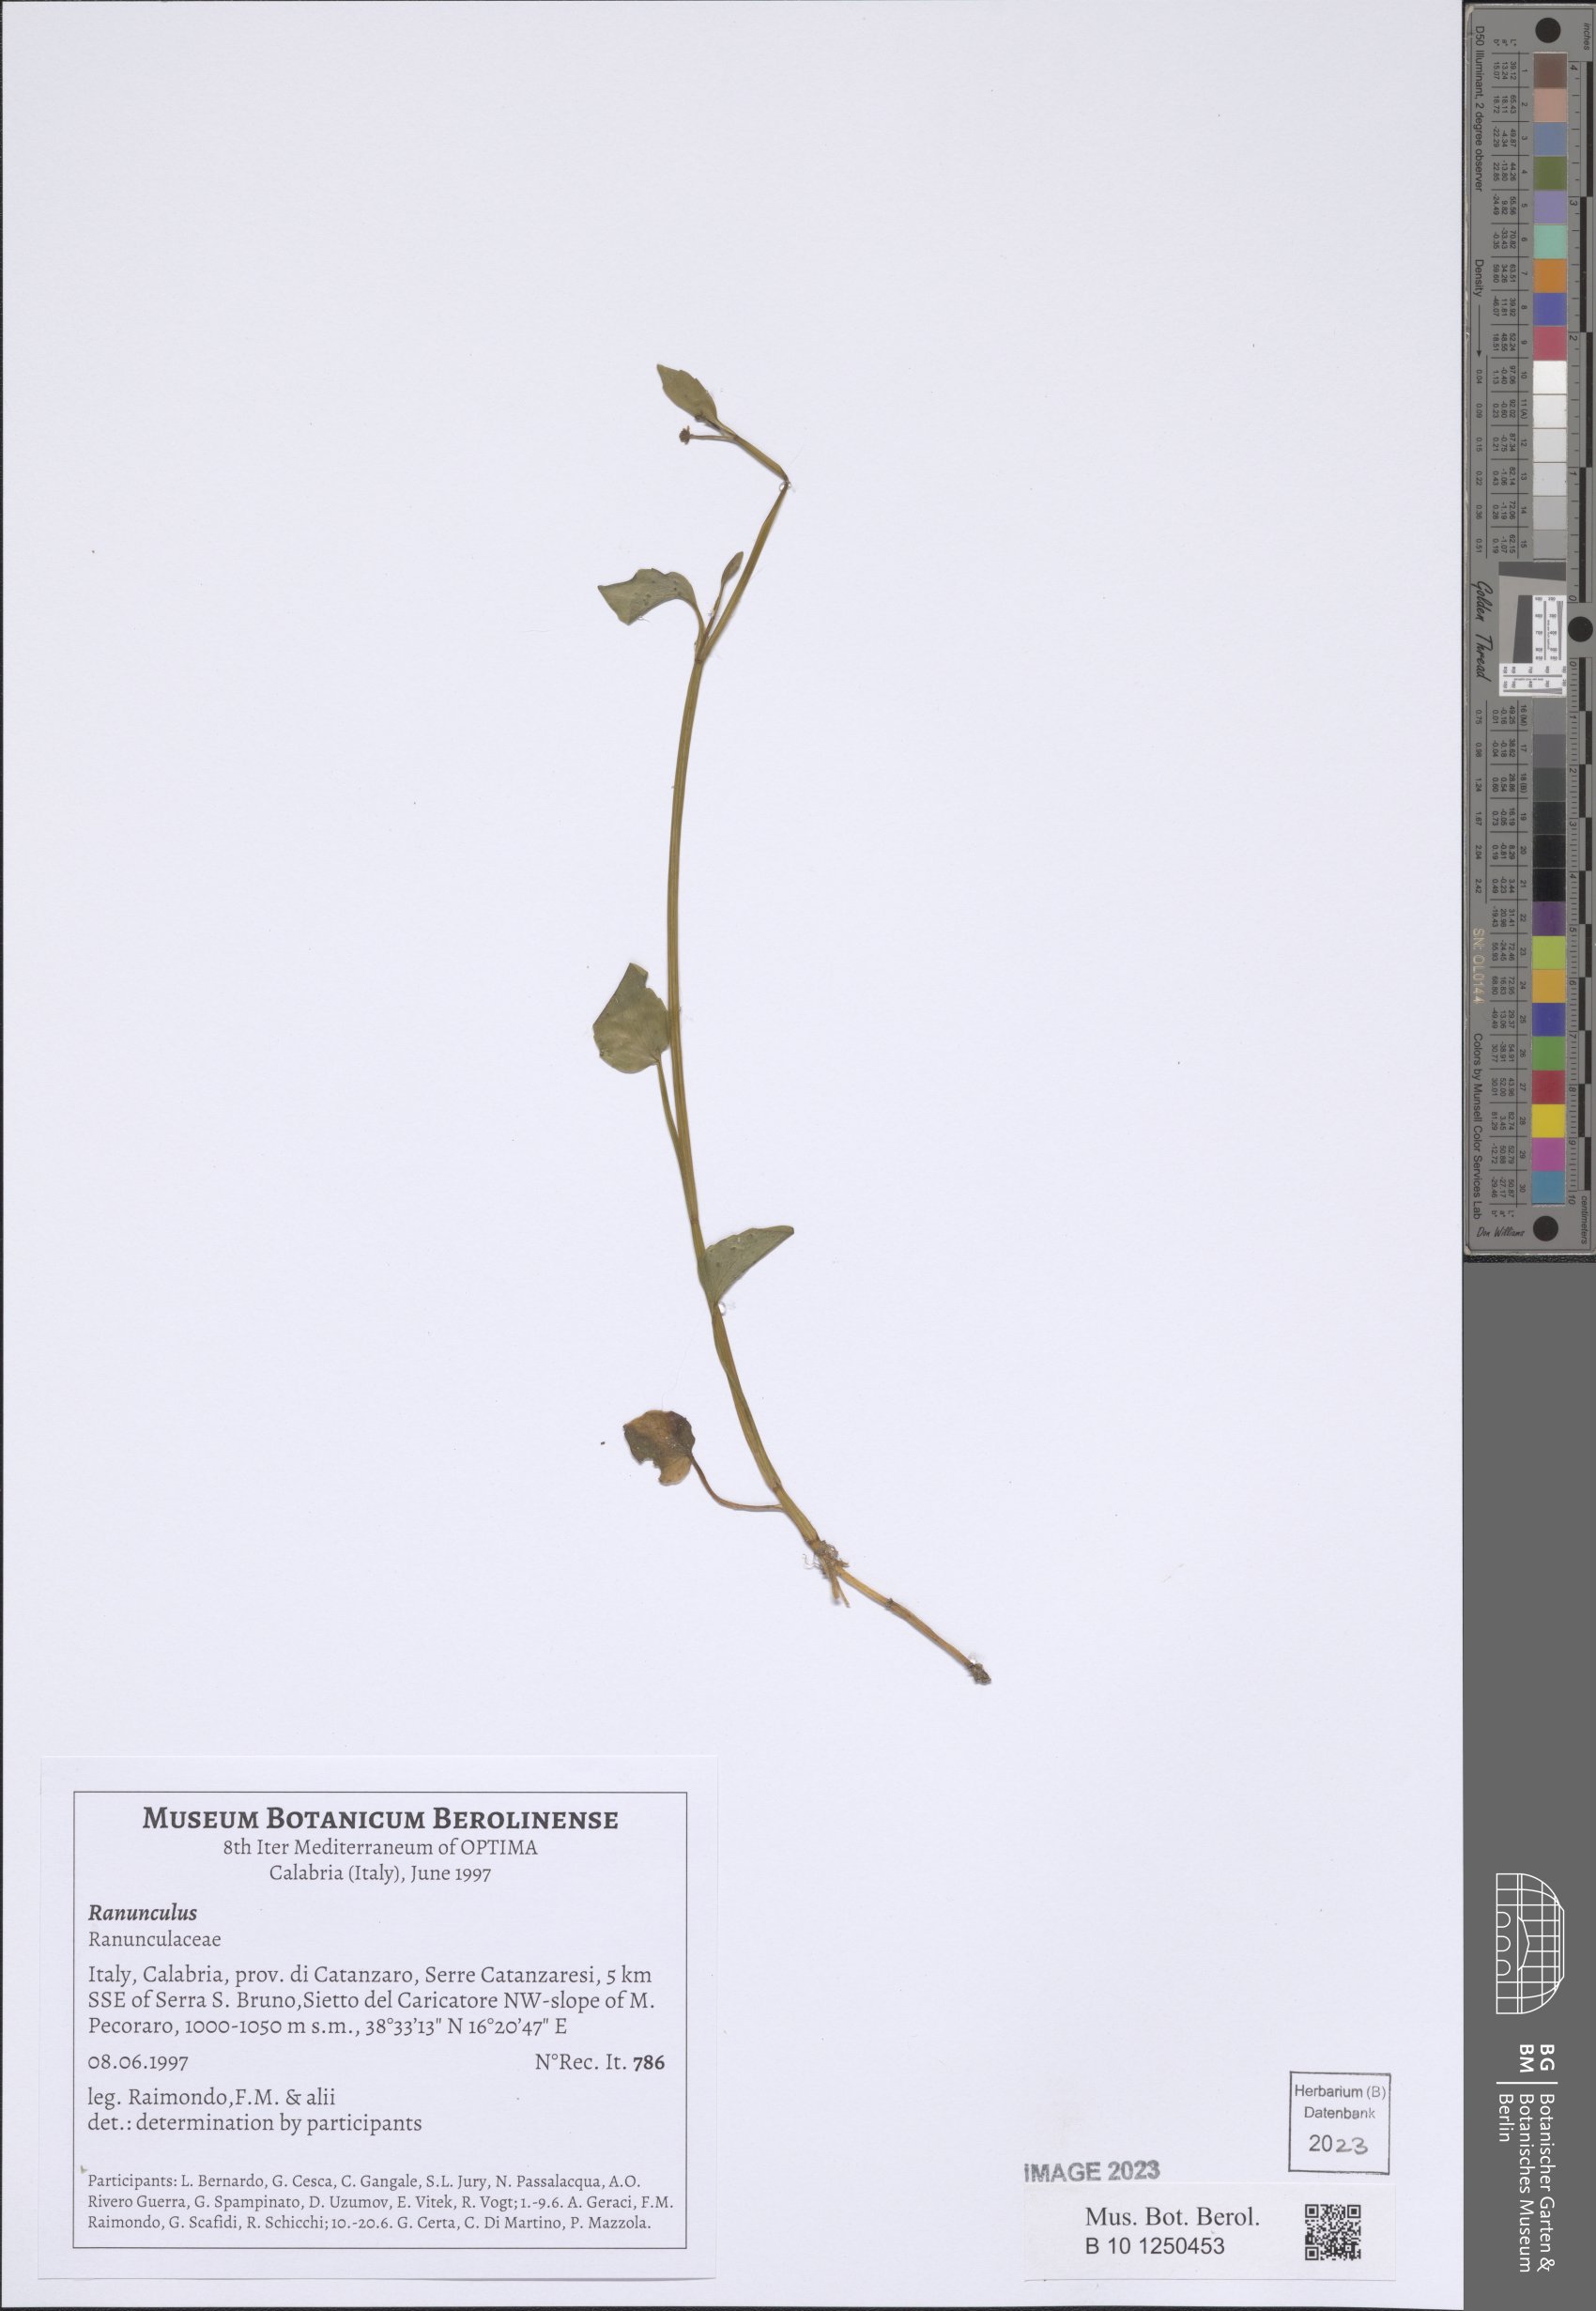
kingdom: Plantae
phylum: Tracheophyta
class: Magnoliopsida
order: Ranunculales
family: Ranunculaceae
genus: Ranunculus
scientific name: Ranunculus
